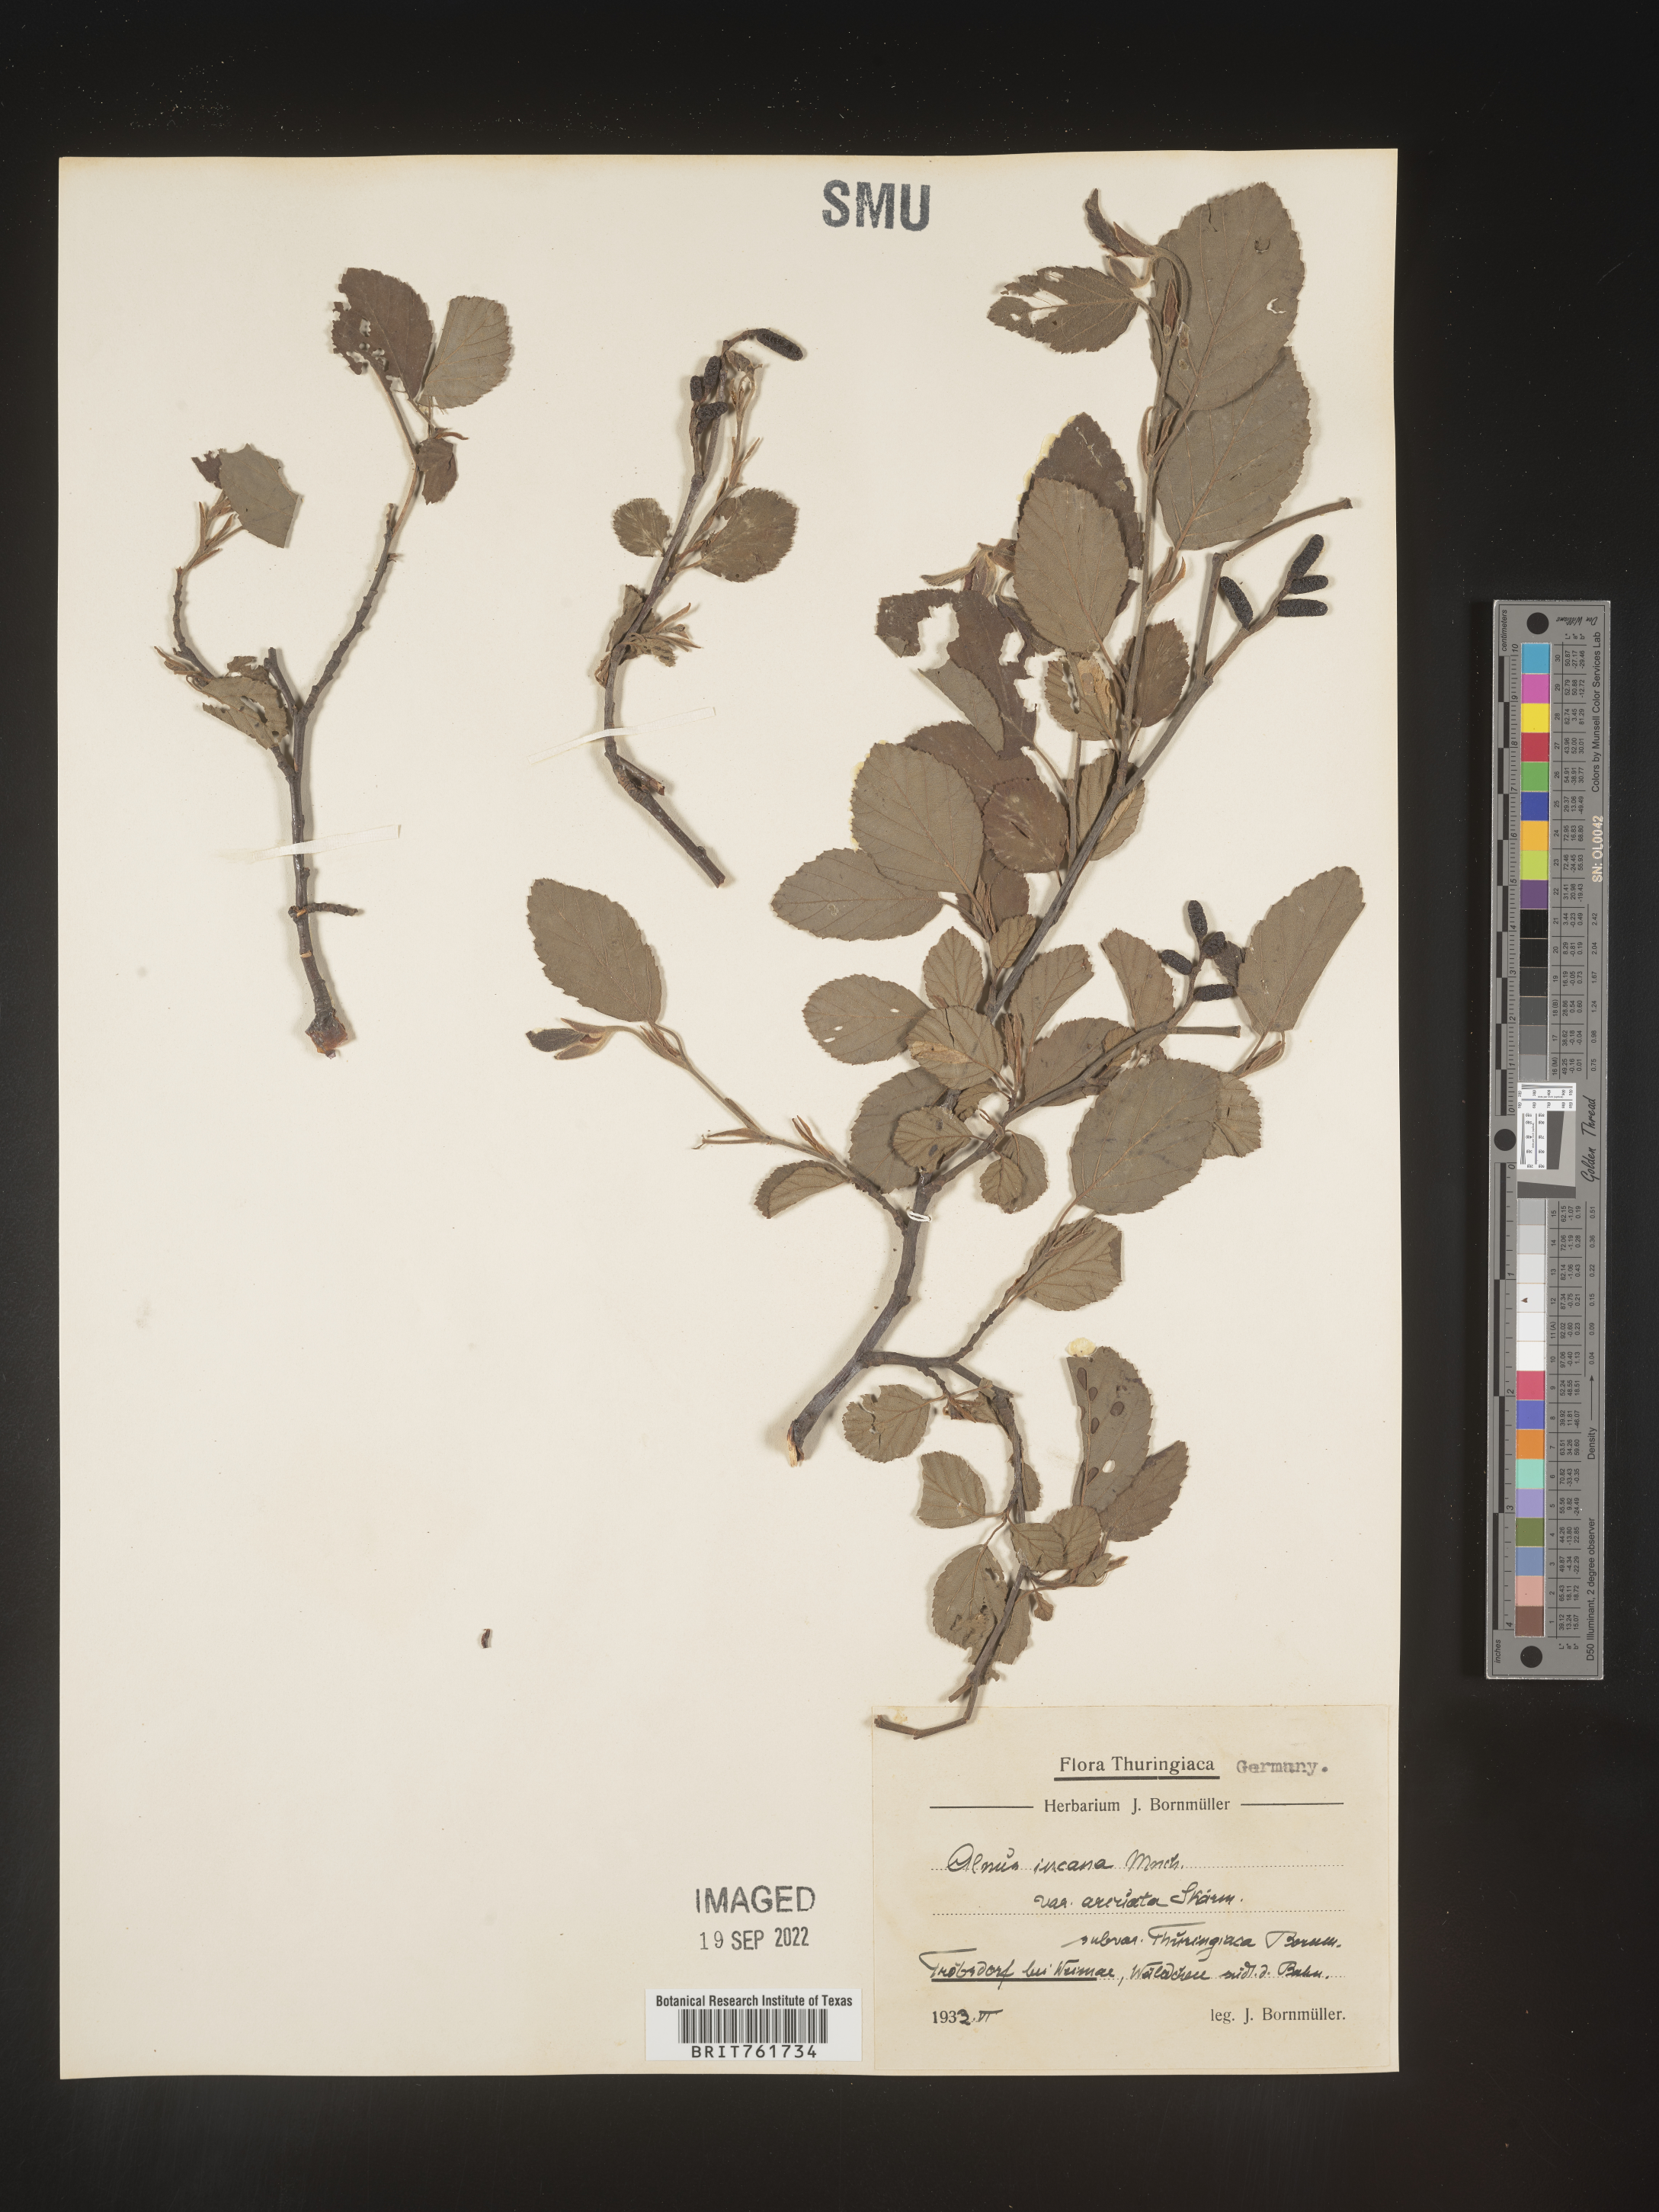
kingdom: Plantae
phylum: Tracheophyta
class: Magnoliopsida
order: Fagales
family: Betulaceae
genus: Alnus
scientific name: Alnus
